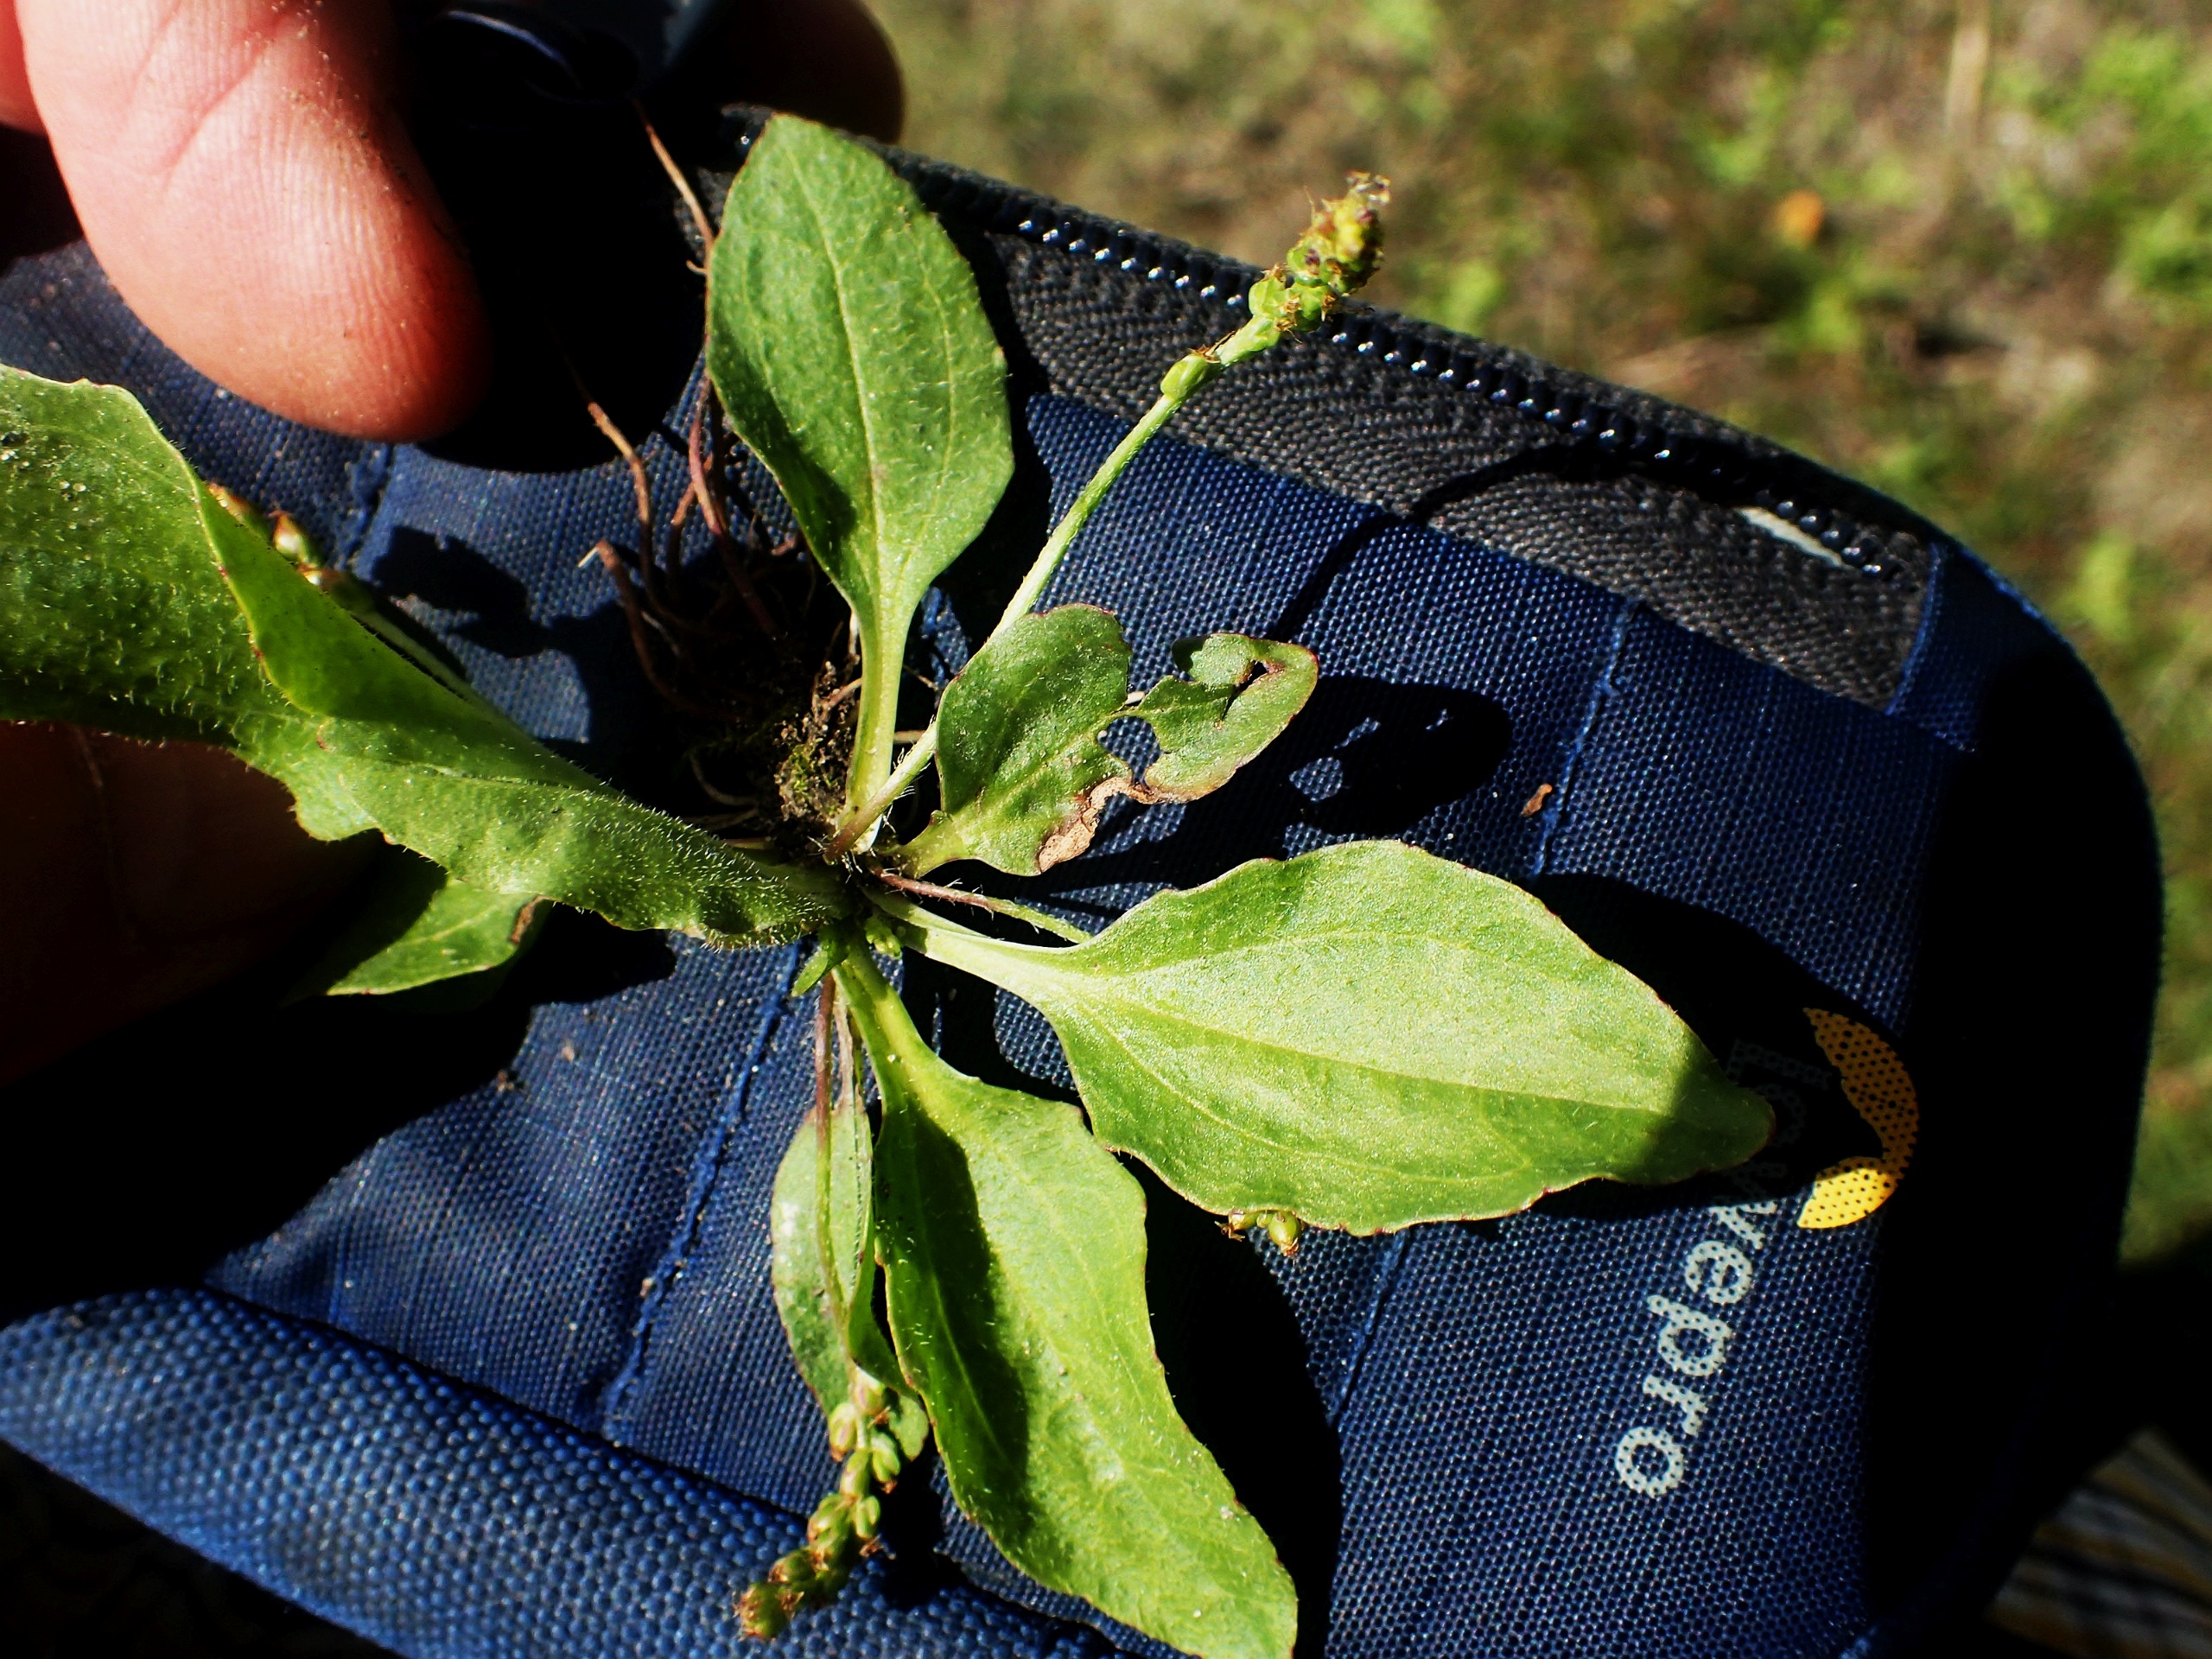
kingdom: Plantae
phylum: Tracheophyta
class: Magnoliopsida
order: Lamiales
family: Plantaginaceae
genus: Plantago
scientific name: Plantago uliginosa
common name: Ager-vejbred
